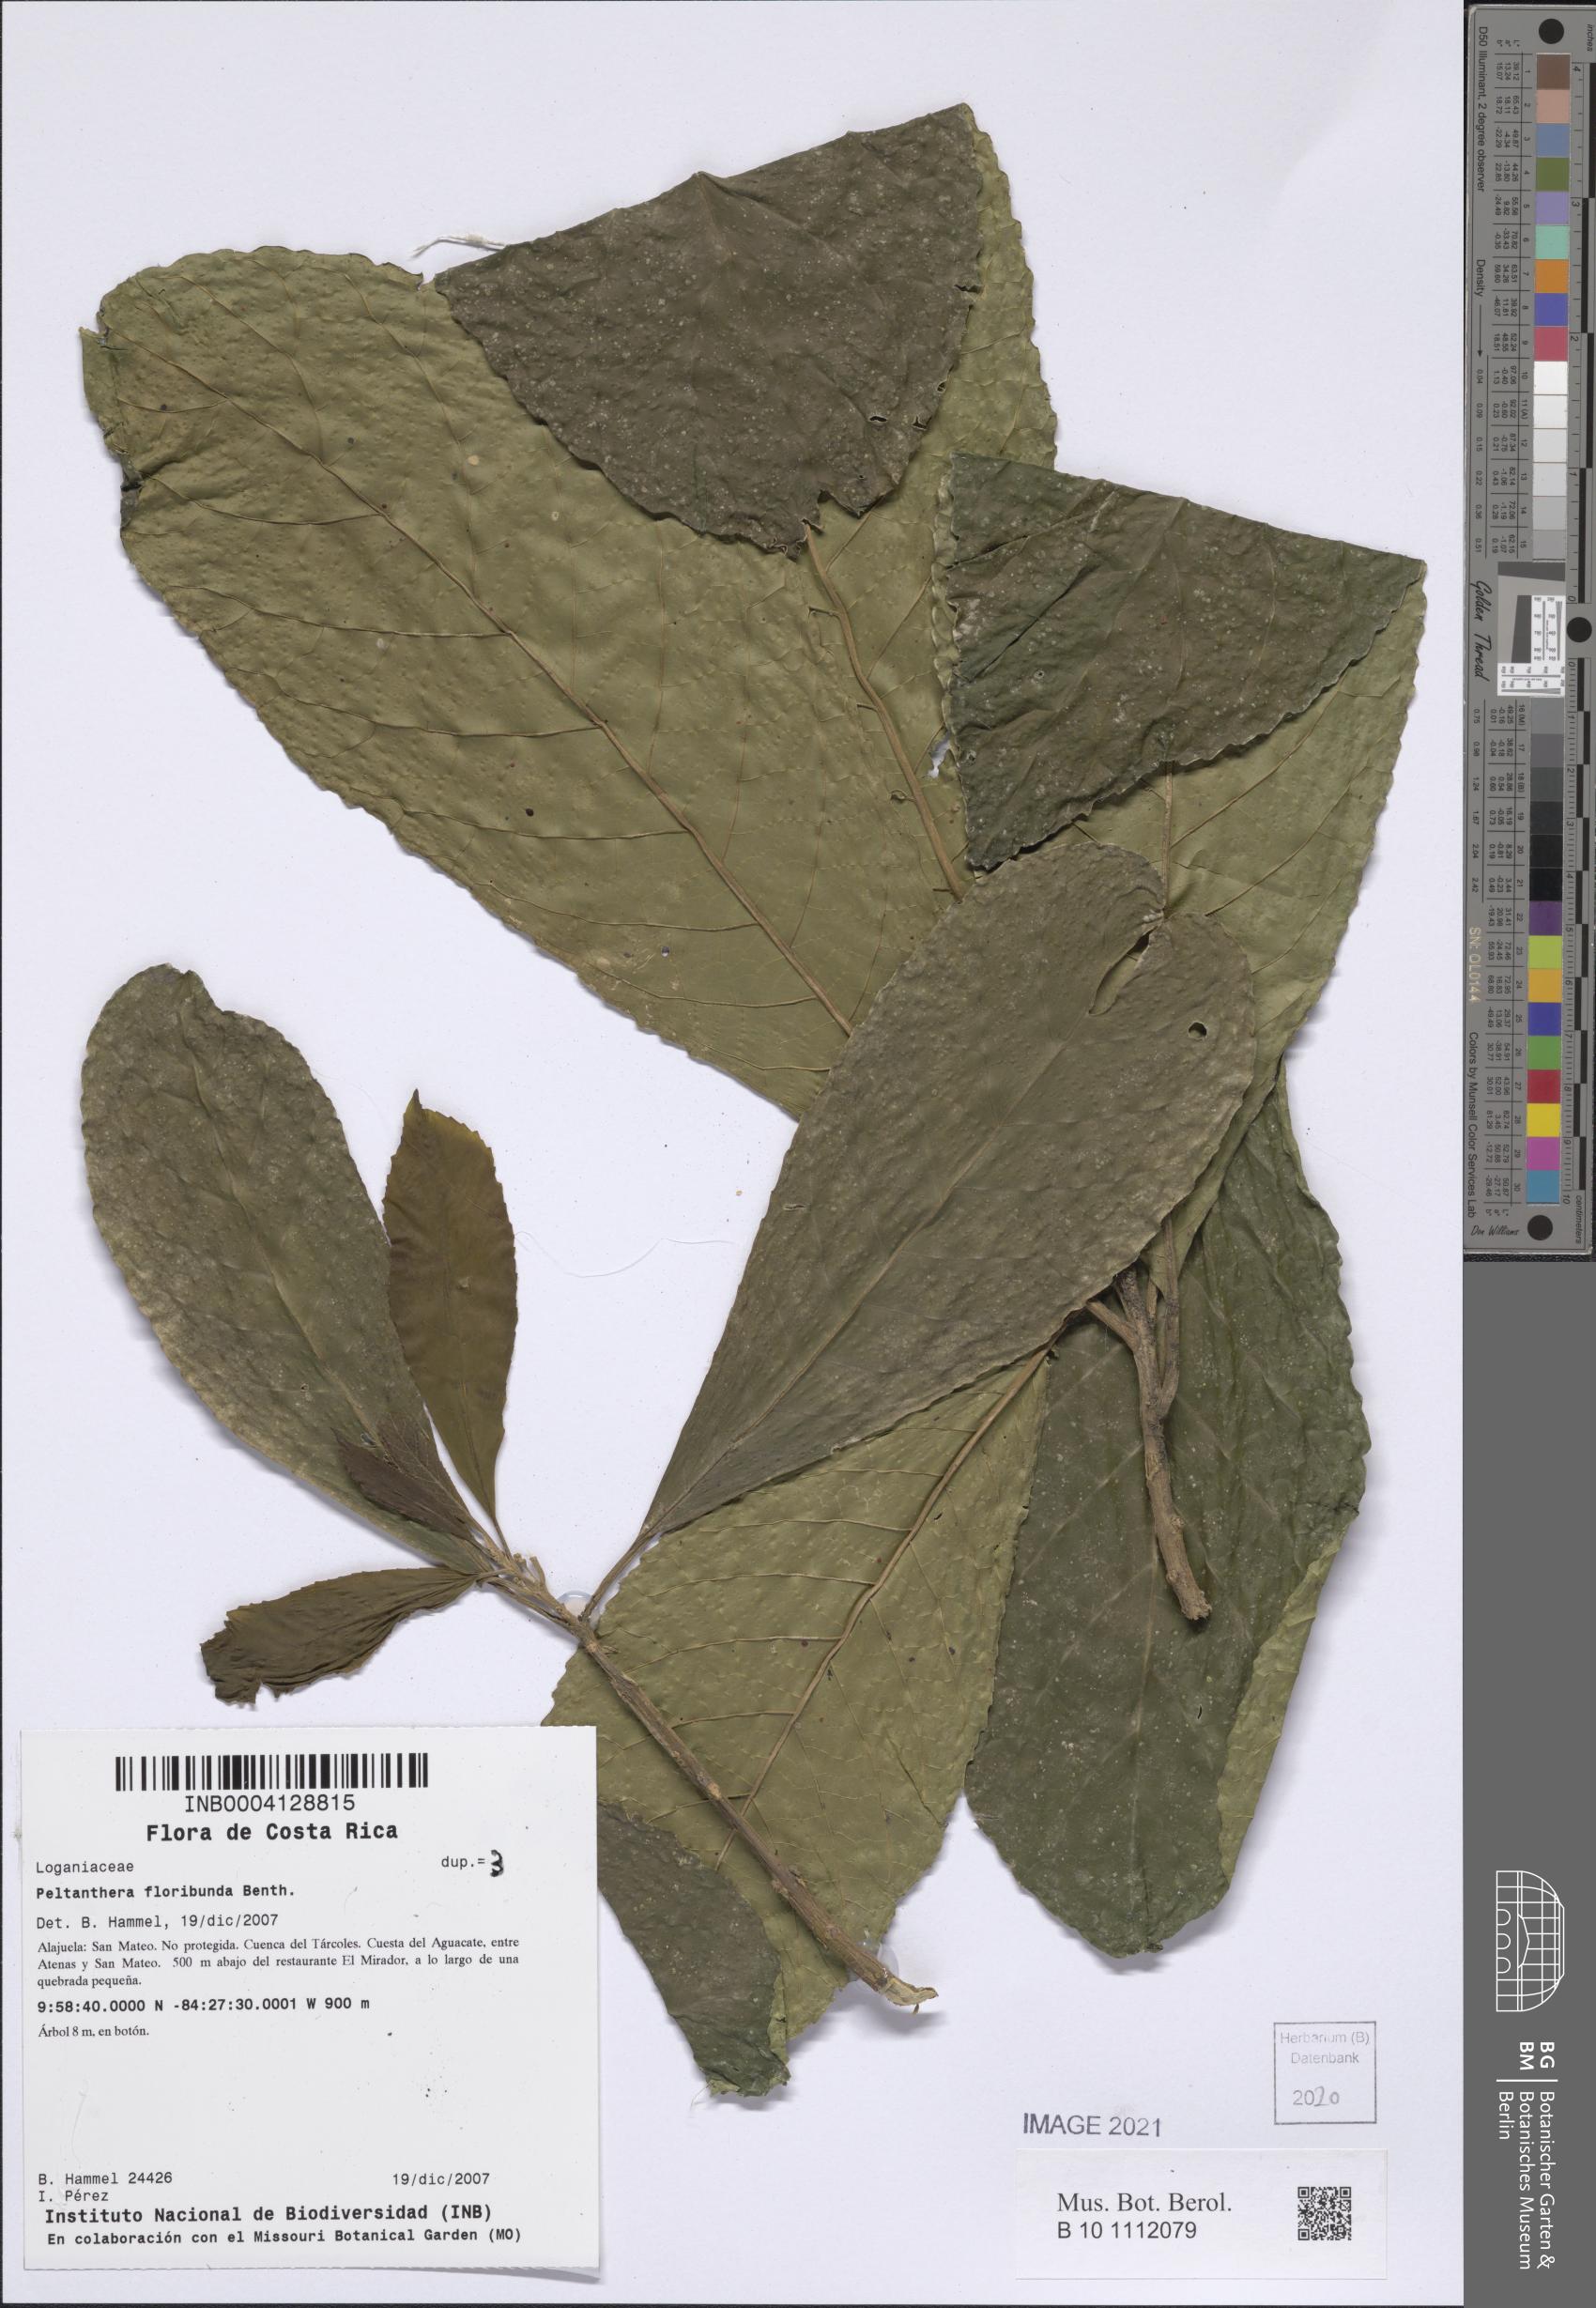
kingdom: Plantae
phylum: Tracheophyta
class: Magnoliopsida
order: Lamiales
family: Peltantheraceae
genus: Peltanthera
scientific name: Peltanthera floribunda
